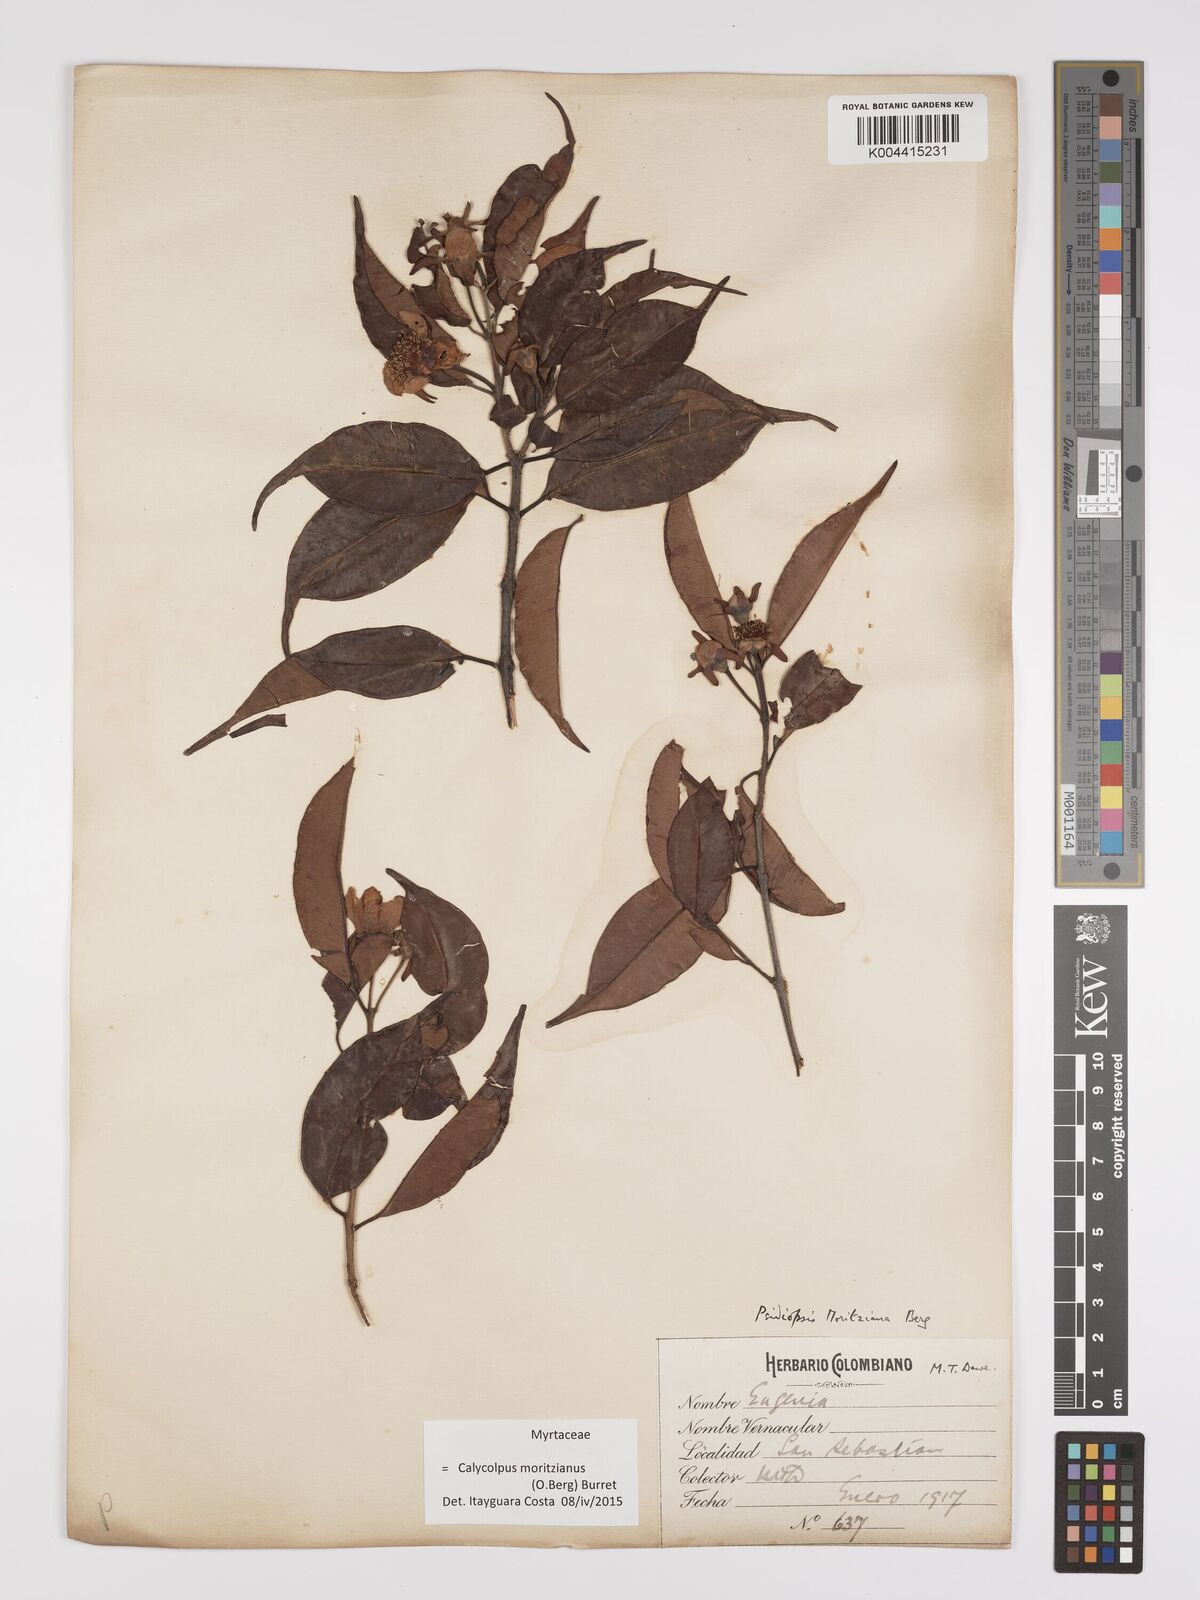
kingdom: Plantae
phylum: Tracheophyta
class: Magnoliopsida
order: Myrtales
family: Myrtaceae
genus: Calycolpus
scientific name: Calycolpus moritzianus
